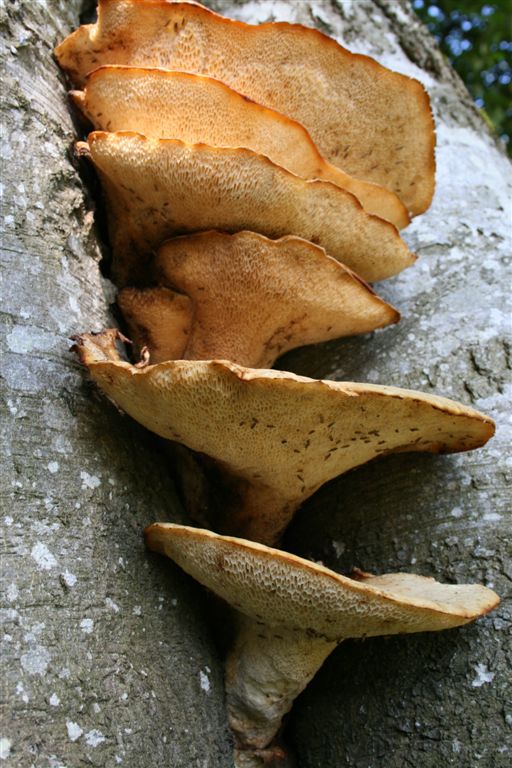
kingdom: Fungi
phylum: Basidiomycota
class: Agaricomycetes
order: Polyporales
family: Polyporaceae
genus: Cerioporus
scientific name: Cerioporus squamosus
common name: skællet stilkporesvamp
